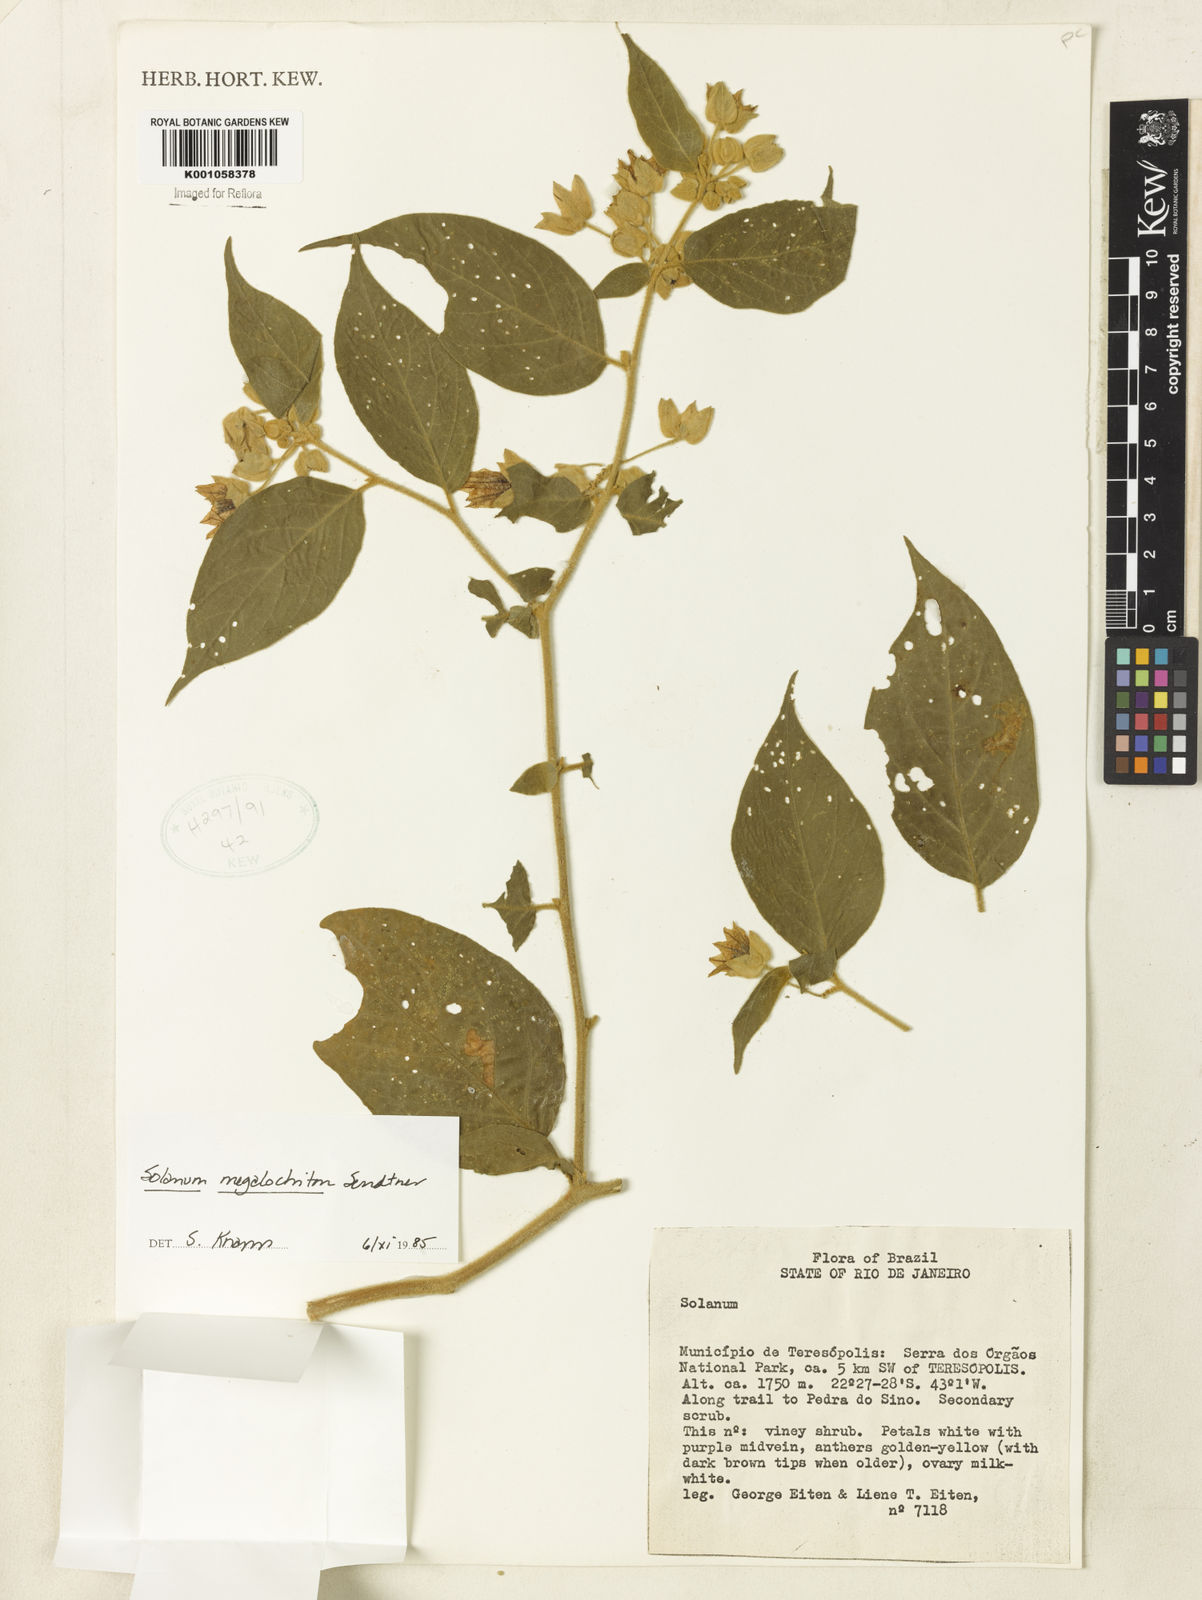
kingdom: Plantae
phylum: Tracheophyta
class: Magnoliopsida
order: Solanales
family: Solanaceae
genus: Solanum
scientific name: Solanum didymum
